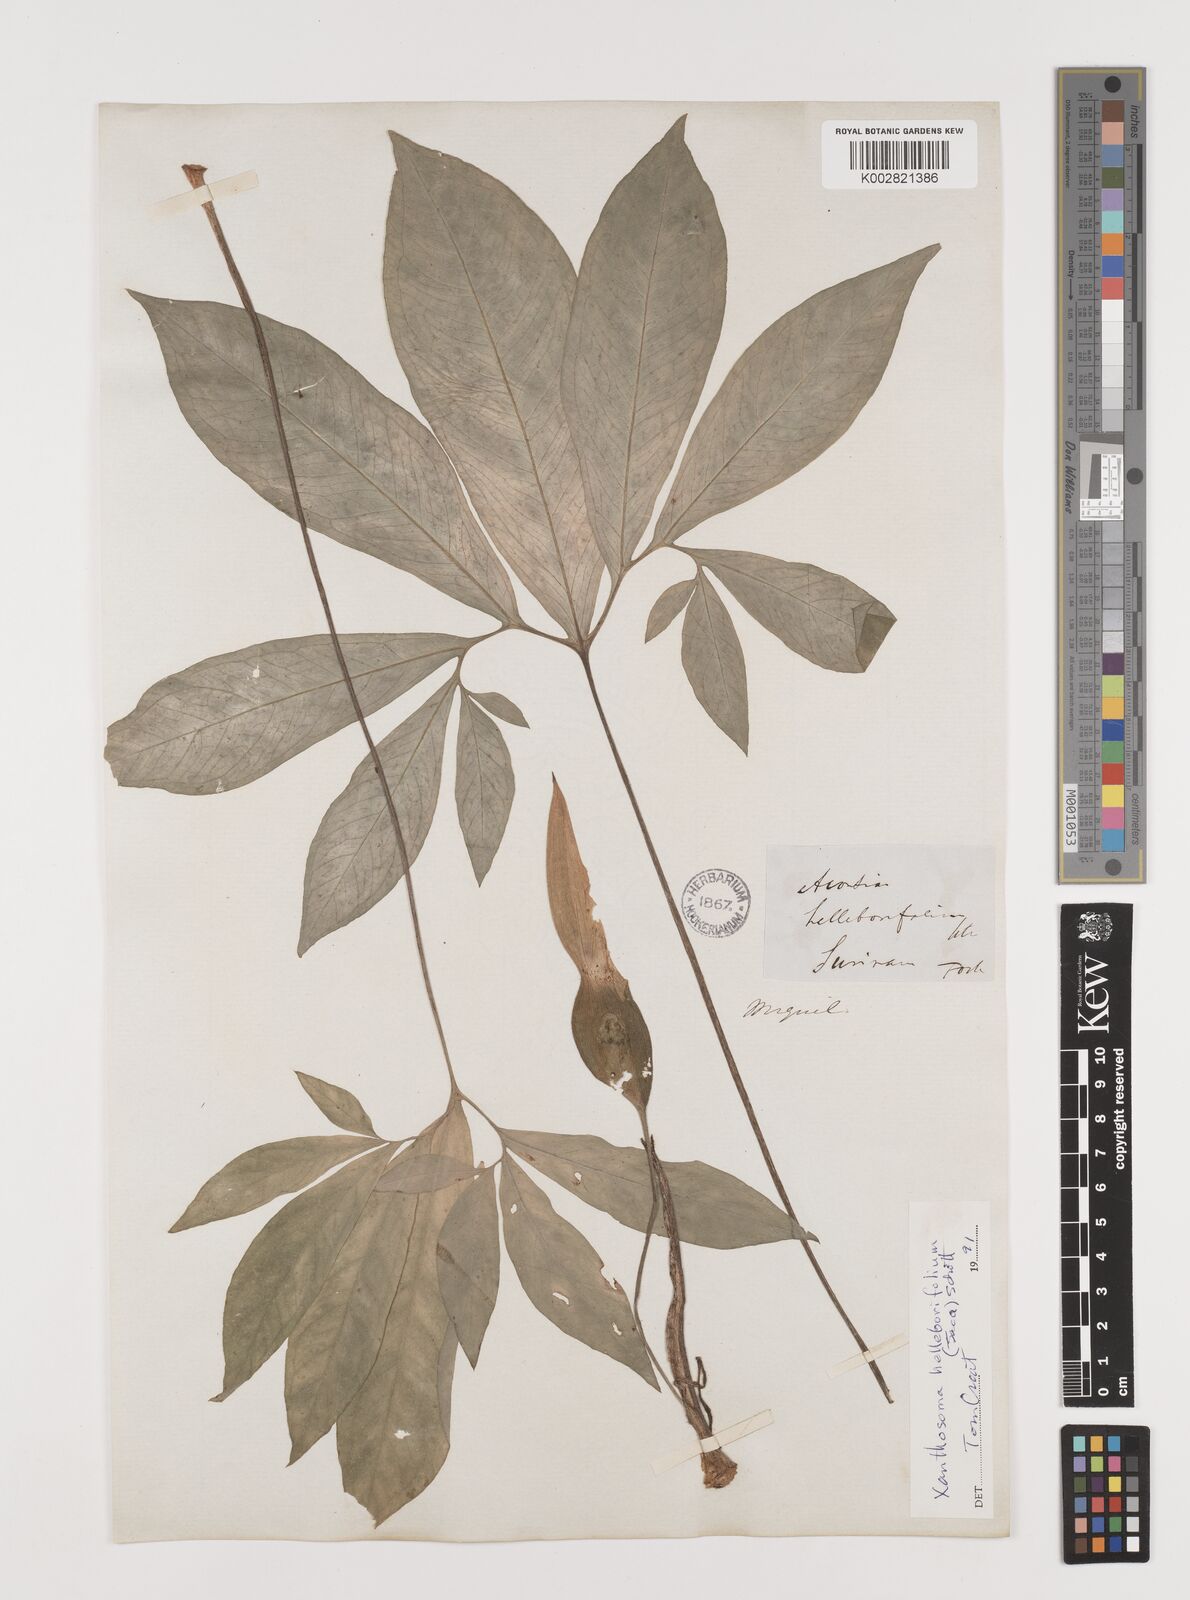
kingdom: Plantae
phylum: Tracheophyta
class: Liliopsida
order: Alismatales
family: Araceae
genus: Xanthosoma
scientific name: Xanthosoma helleborifolium
